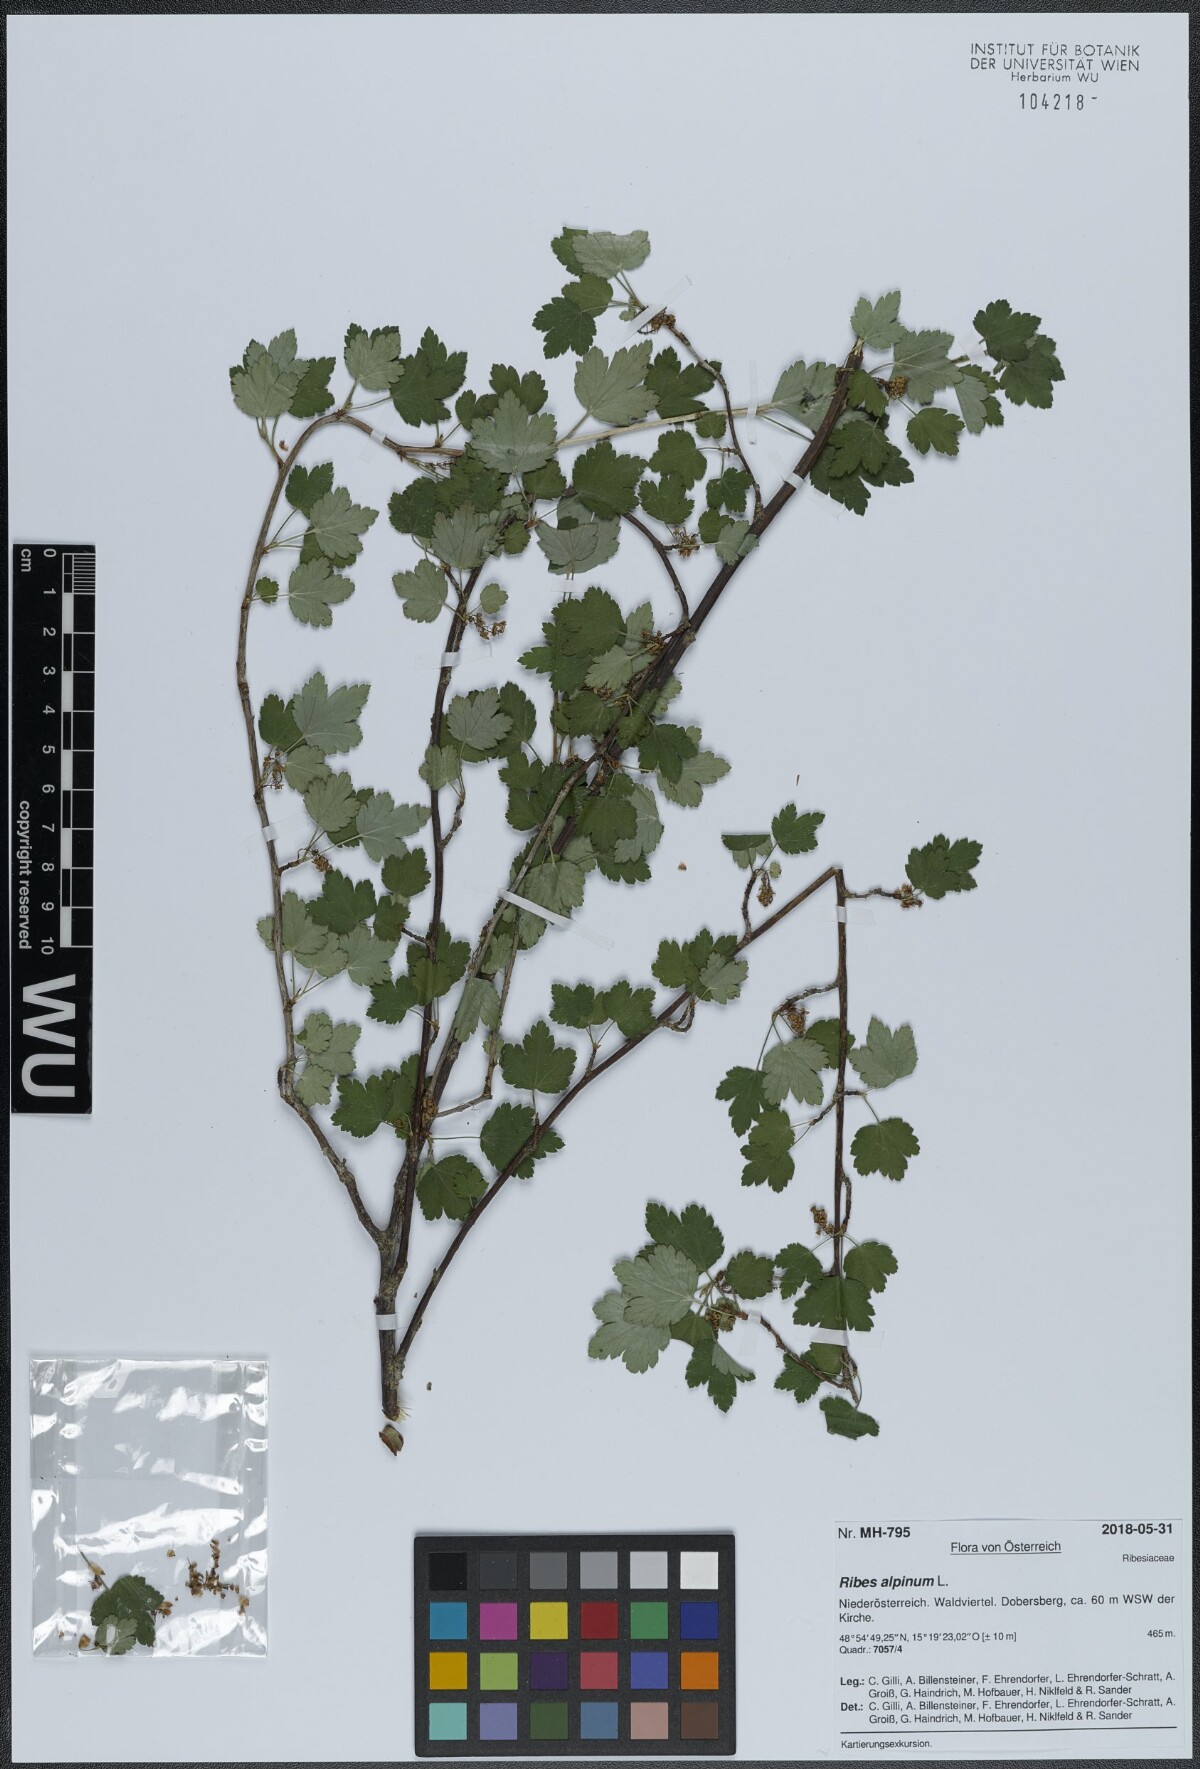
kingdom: Plantae
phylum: Tracheophyta
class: Magnoliopsida
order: Saxifragales
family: Grossulariaceae
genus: Ribes
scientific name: Ribes alpinum
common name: Alpine currant
